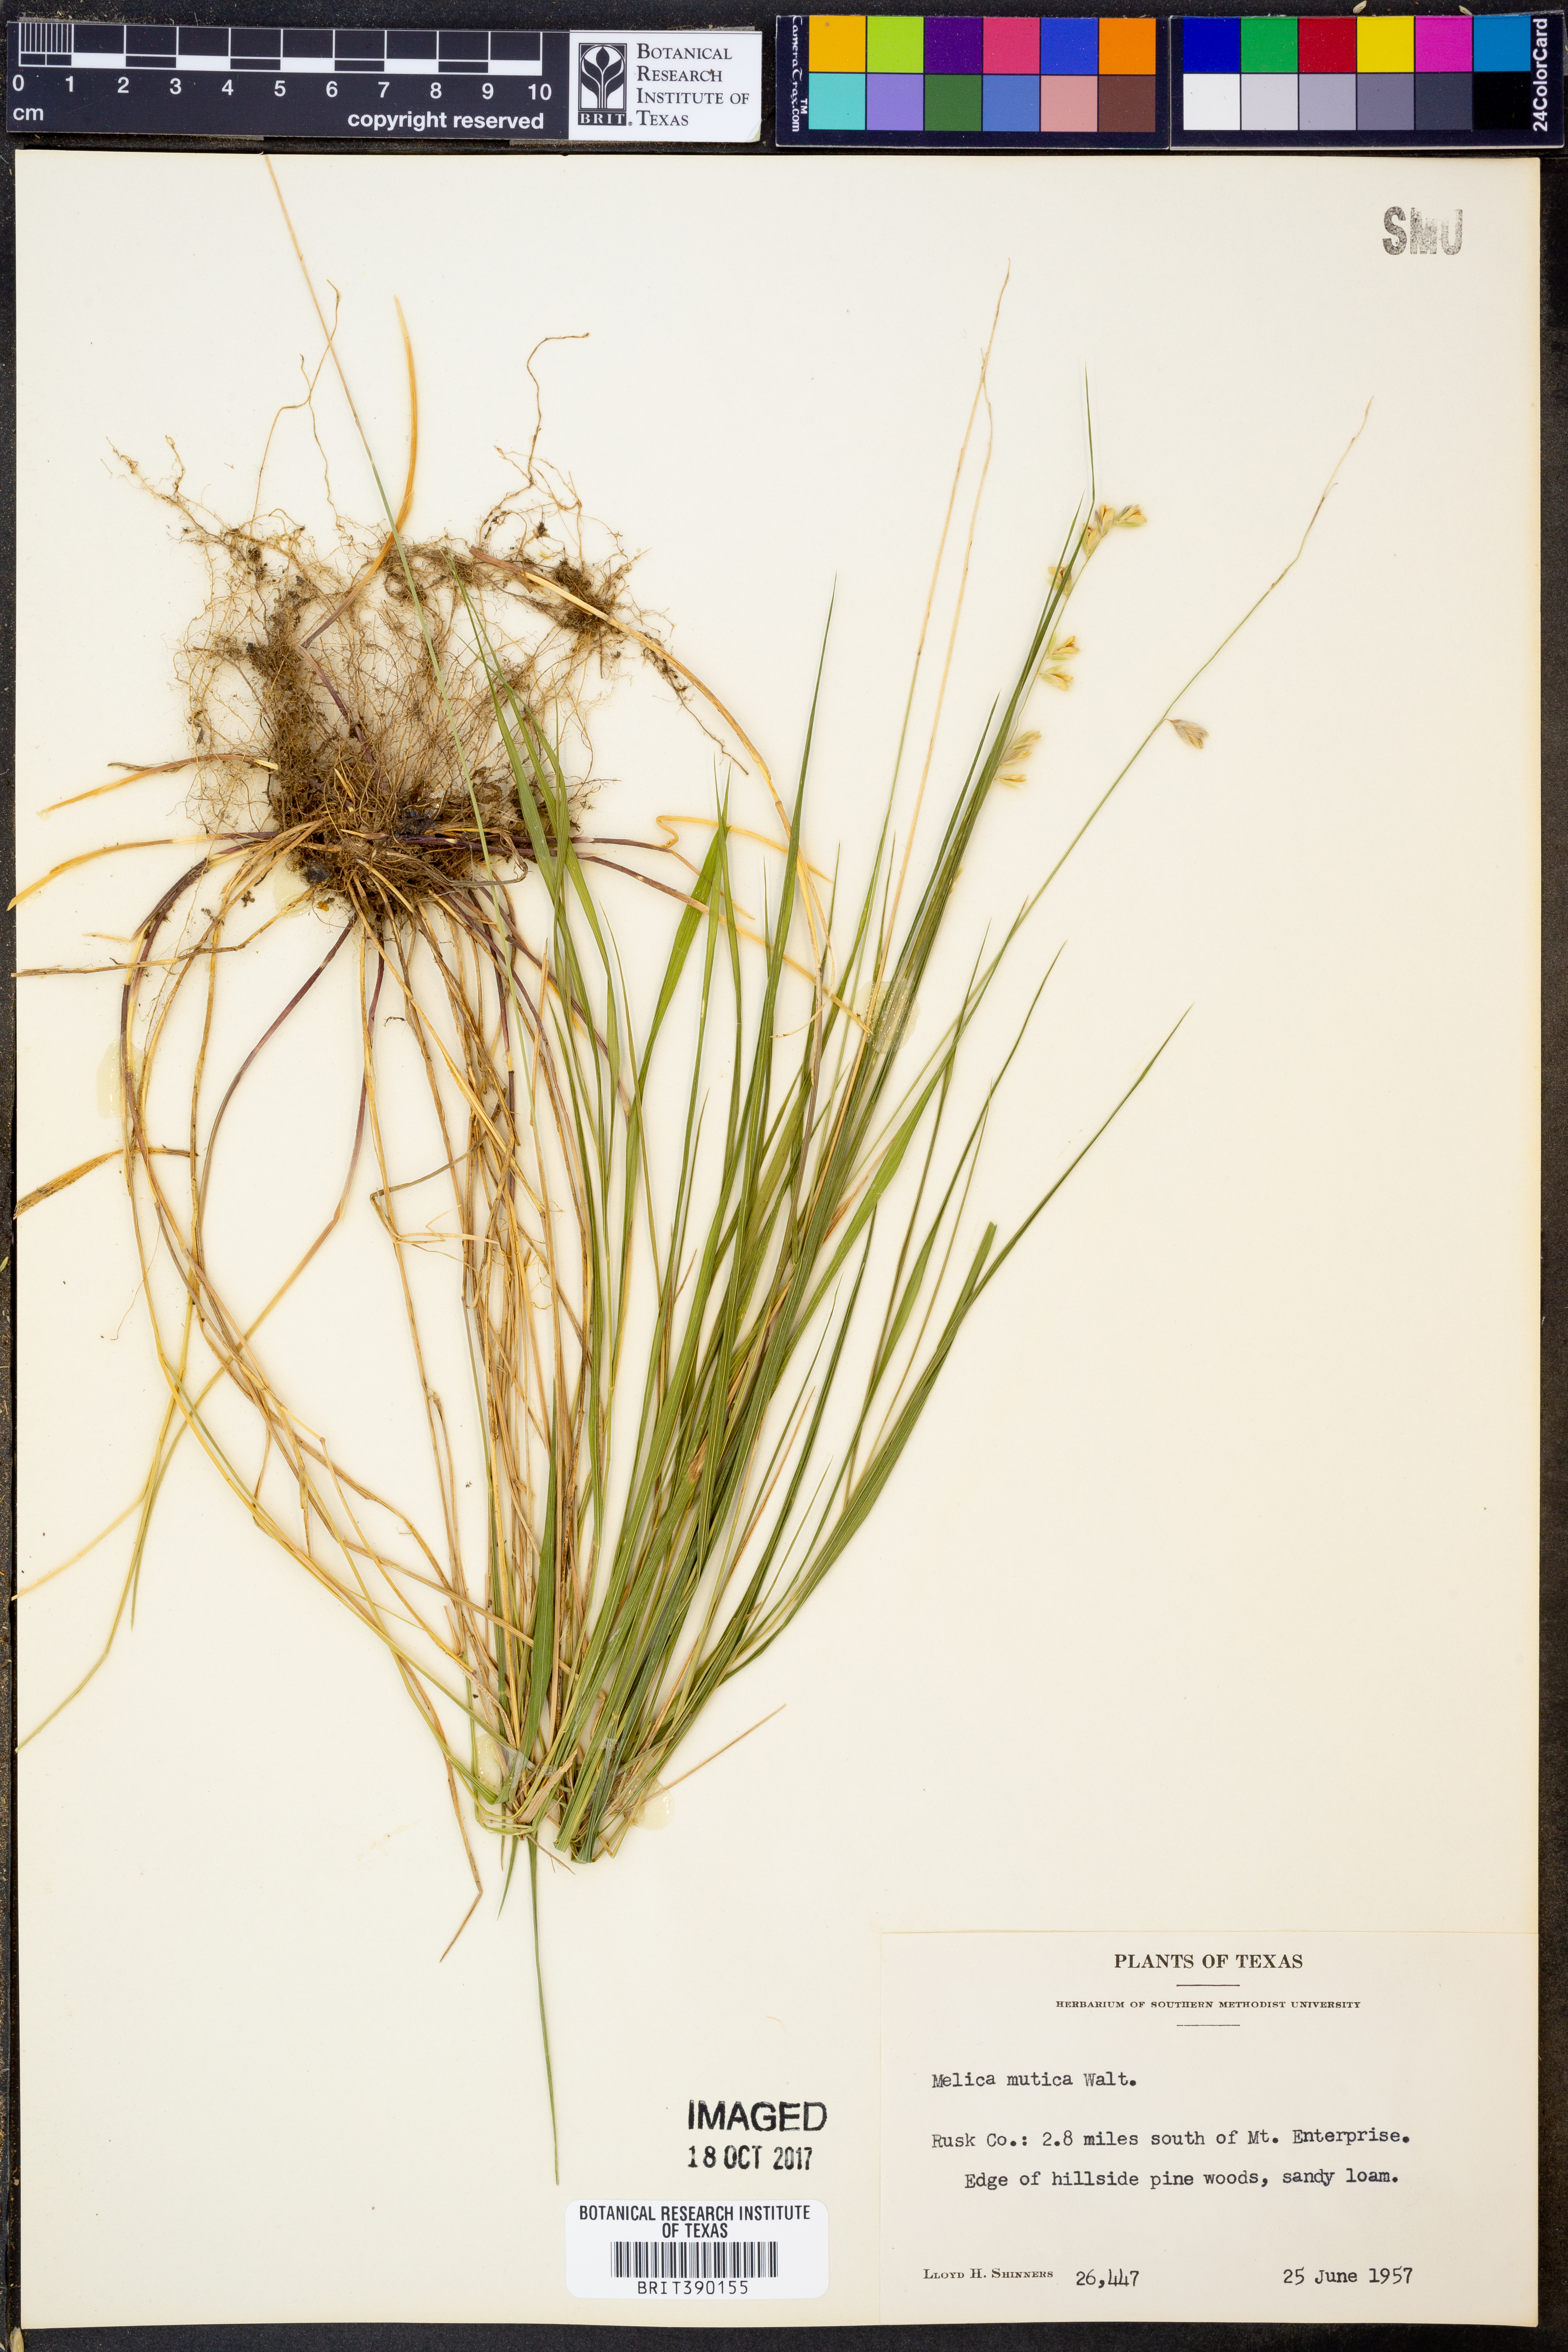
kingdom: Plantae
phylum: Tracheophyta
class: Liliopsida
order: Poales
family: Poaceae
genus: Melica
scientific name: Melica mutica
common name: Two-flower melic
